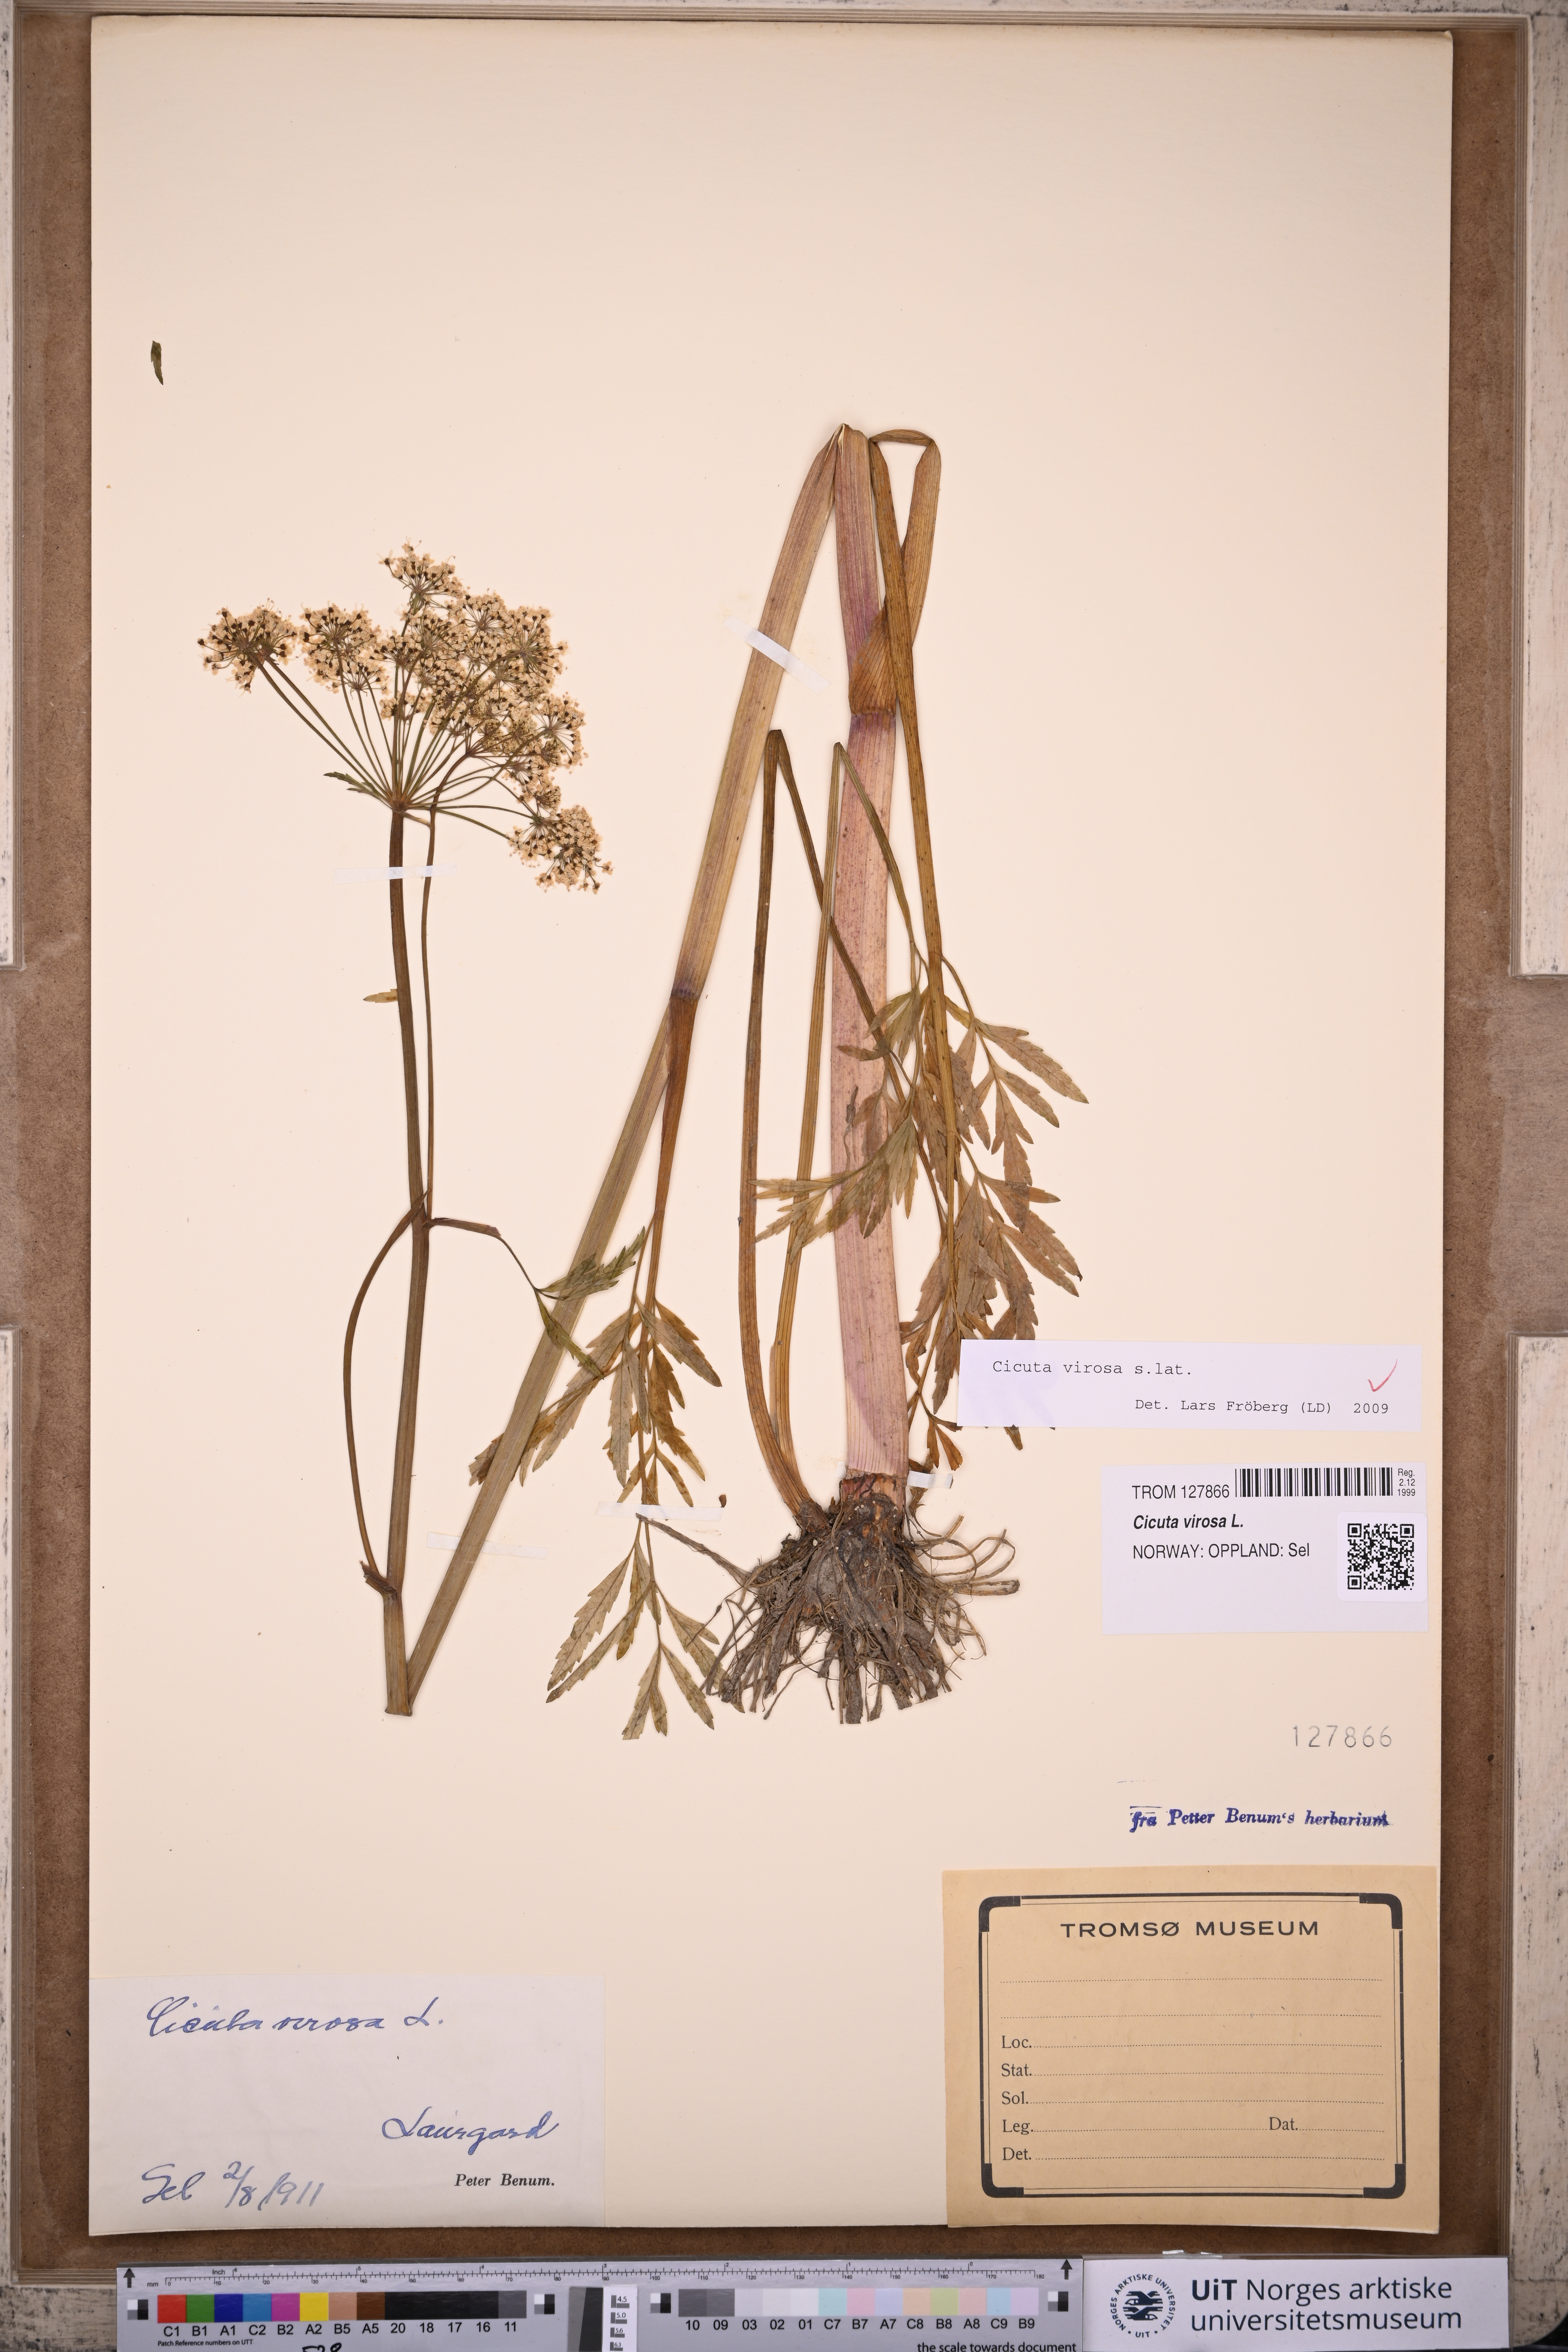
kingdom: Plantae
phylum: Tracheophyta
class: Magnoliopsida
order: Apiales
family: Apiaceae
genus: Cicuta
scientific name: Cicuta virosa
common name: Cowbane
